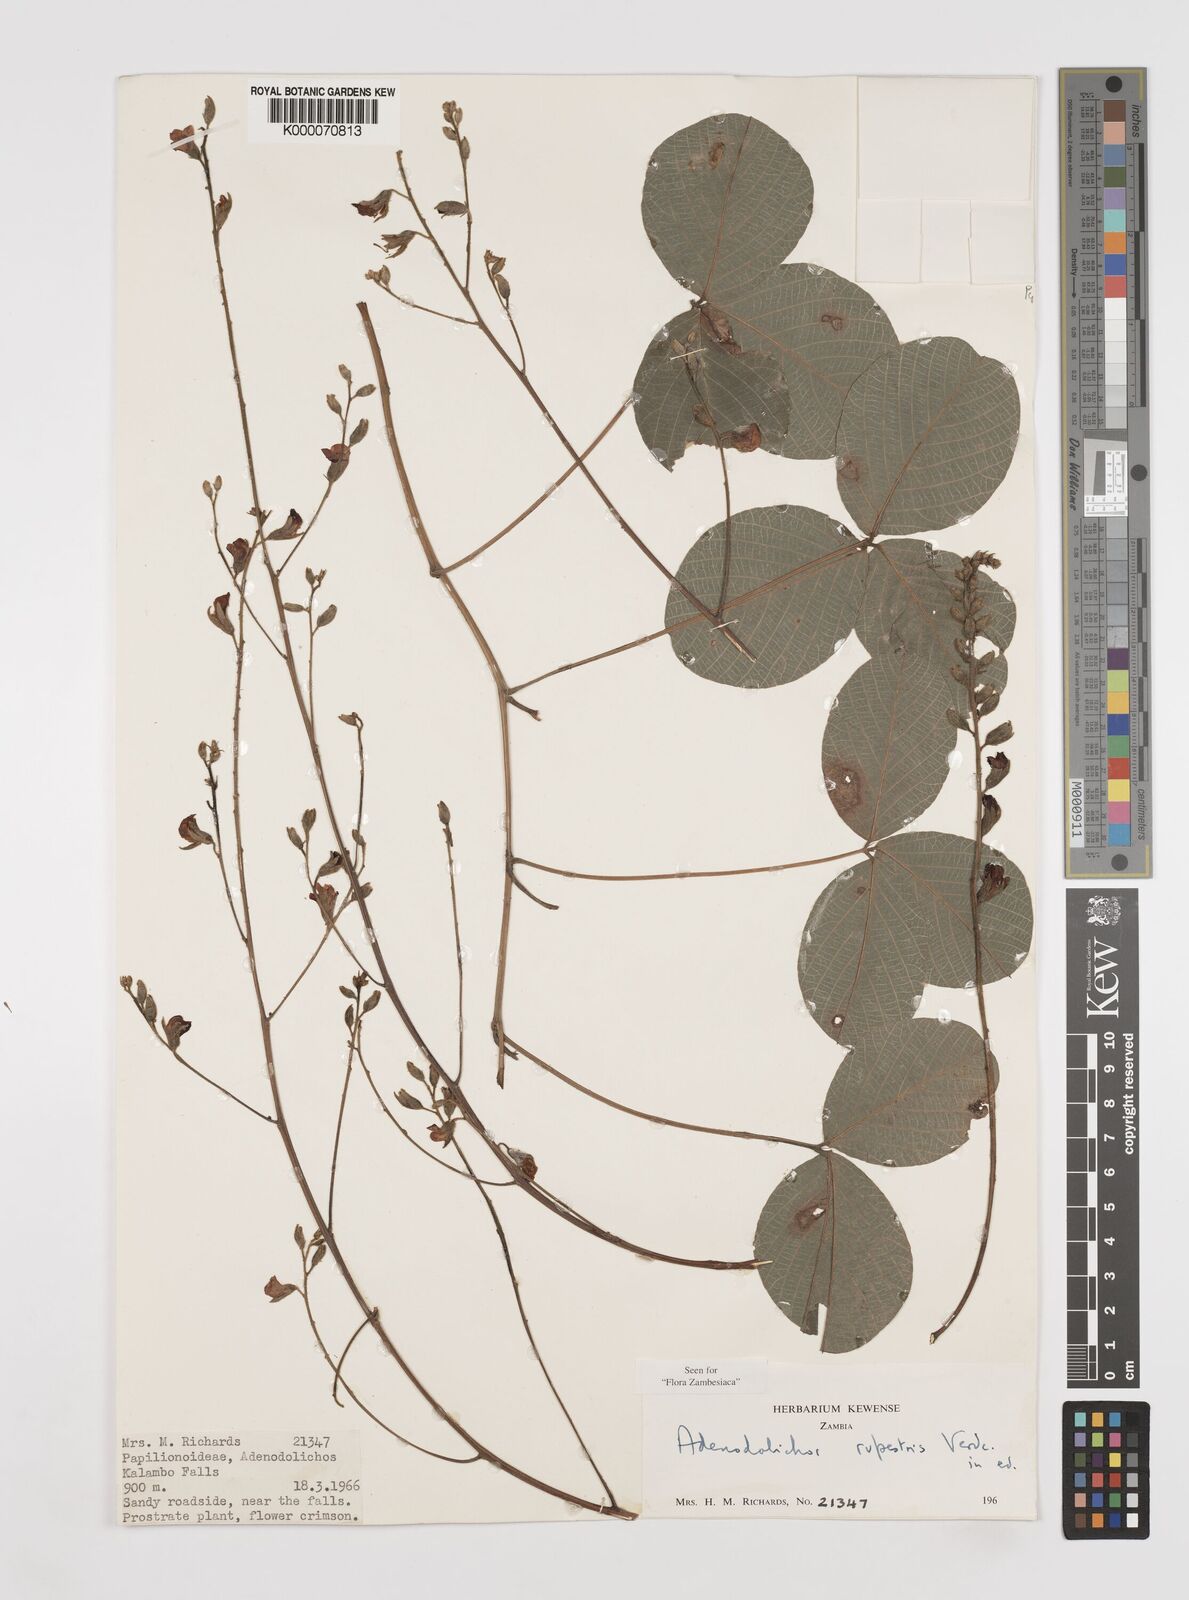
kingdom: Plantae
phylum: Tracheophyta
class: Magnoliopsida
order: Fabales
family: Fabaceae
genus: Adenodolichos
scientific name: Adenodolichos rupestris
